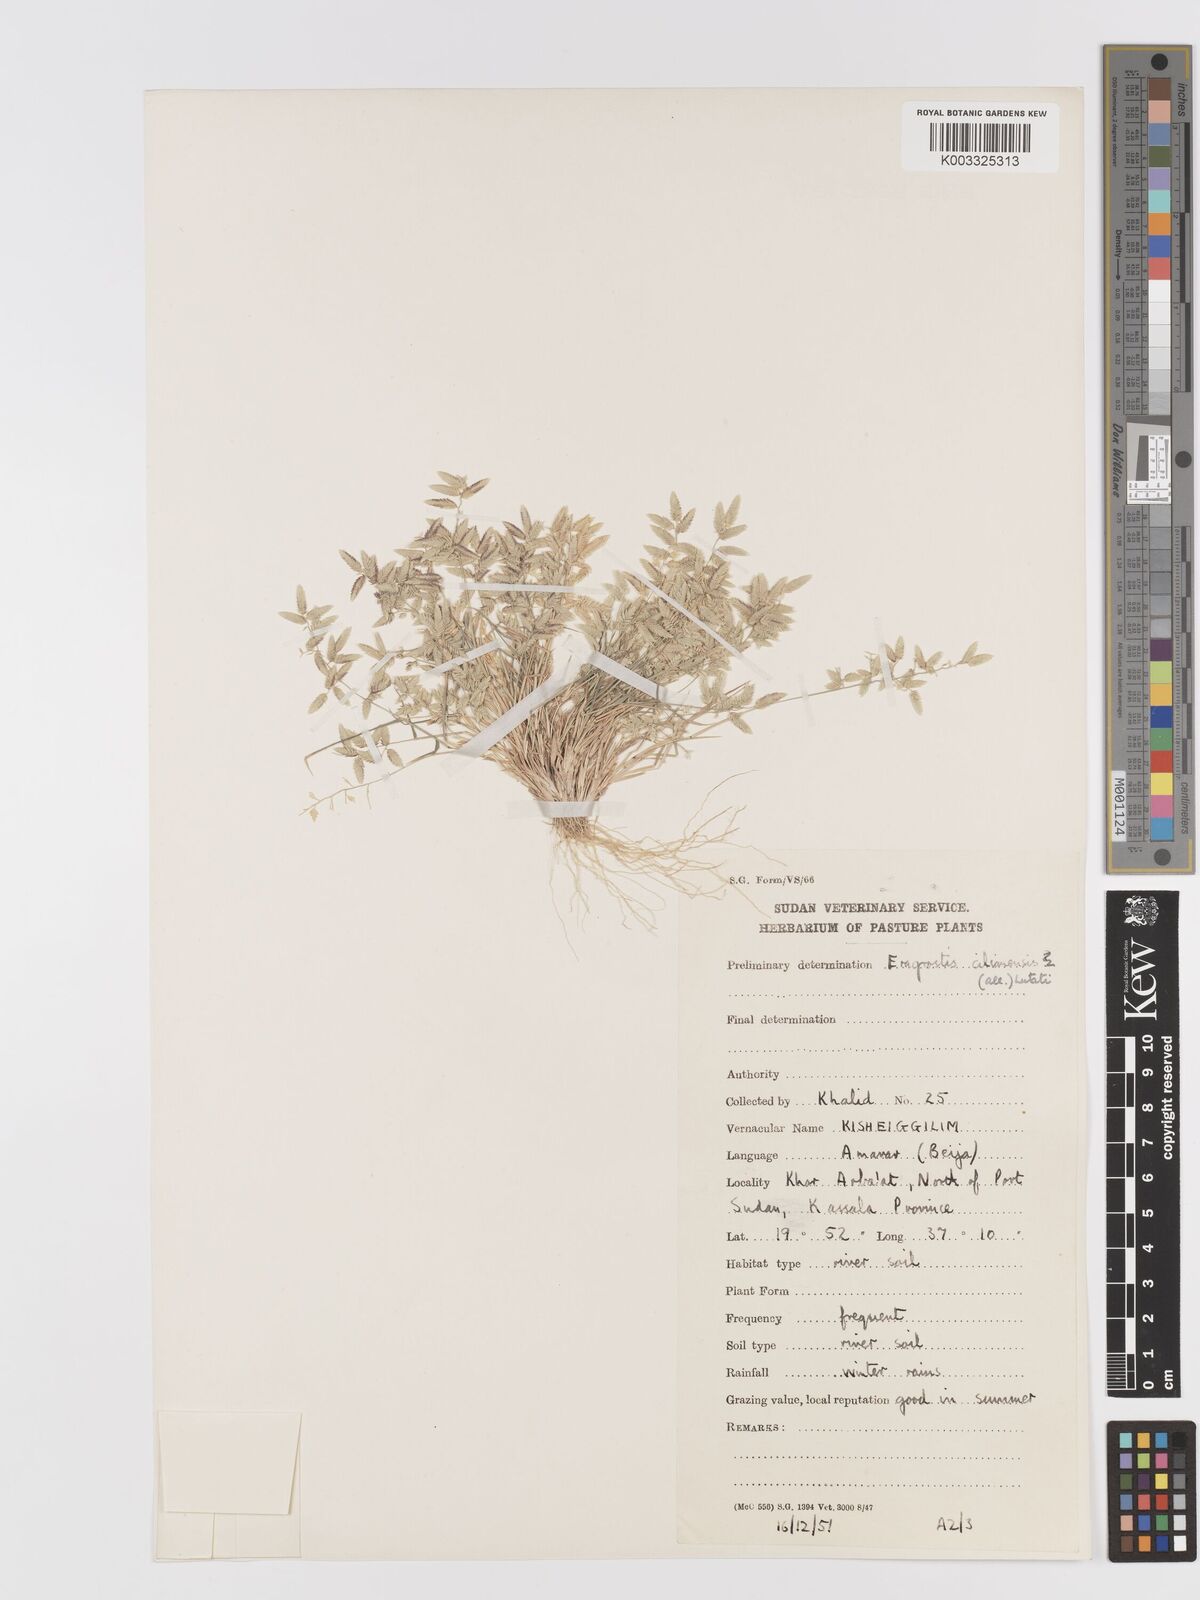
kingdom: Plantae
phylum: Tracheophyta
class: Liliopsida
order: Poales
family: Poaceae
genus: Eragrostis
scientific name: Eragrostis cilianensis
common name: Stinkgrass
